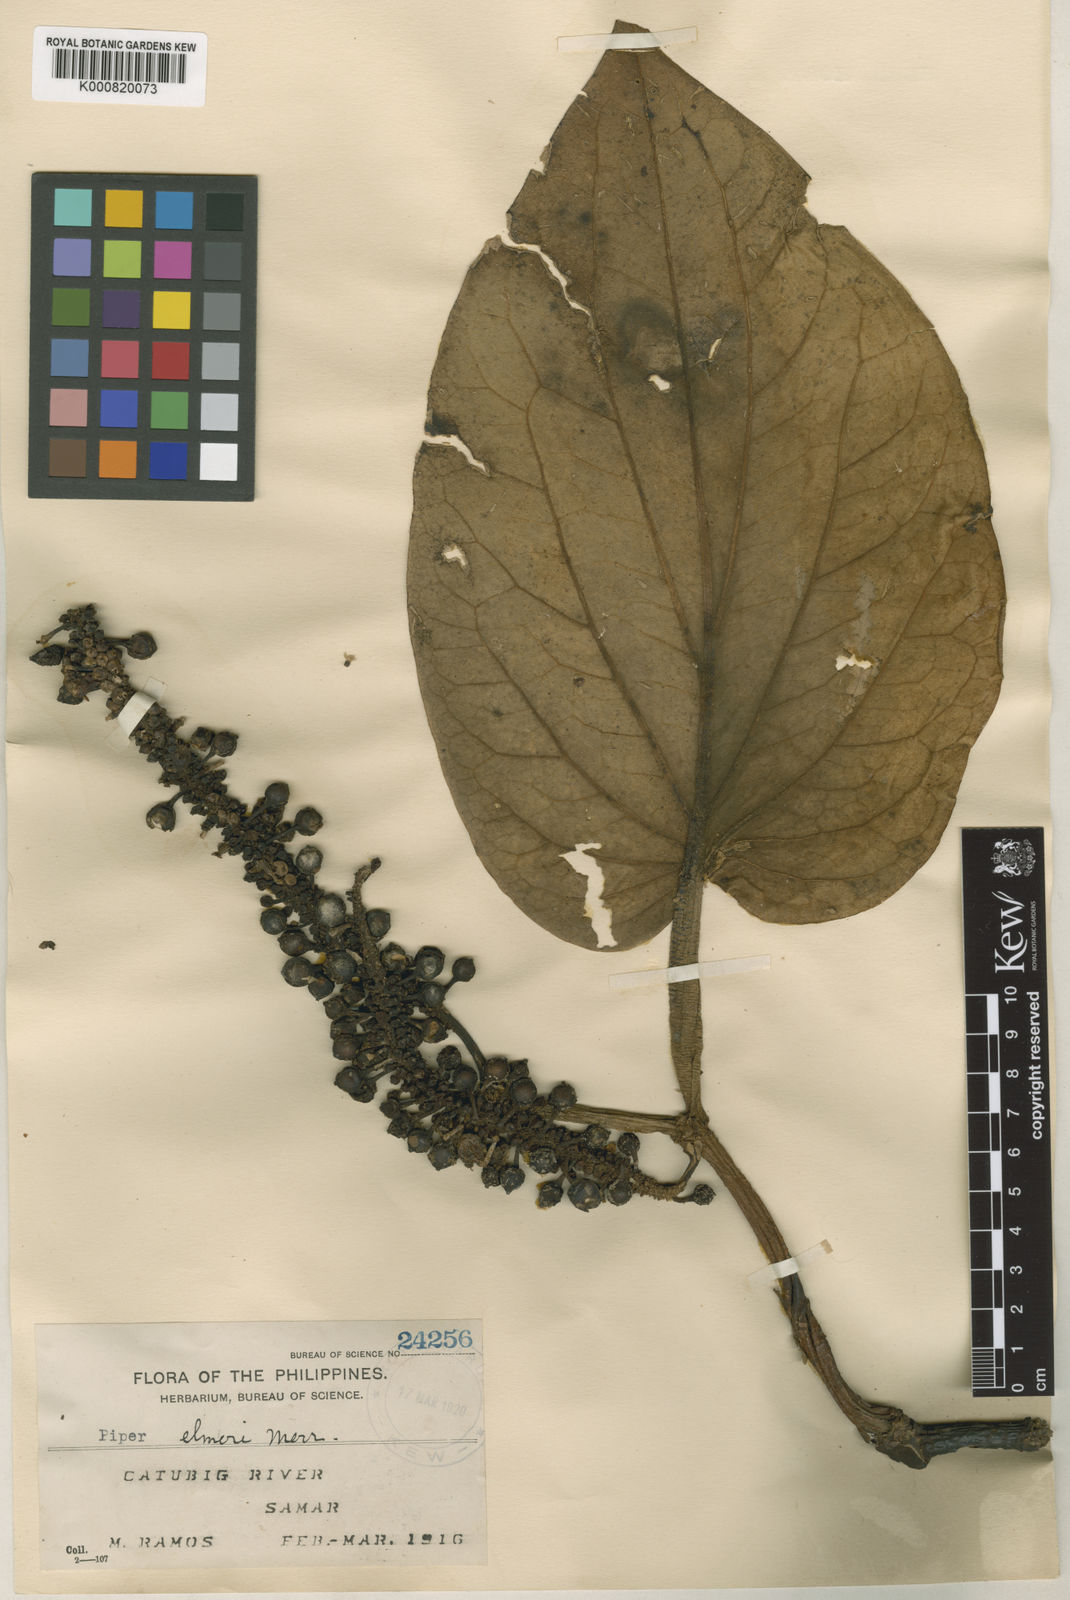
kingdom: Plantae
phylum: Tracheophyta
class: Magnoliopsida
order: Piperales
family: Piperaceae
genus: Piper
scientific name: Piper elmeri
